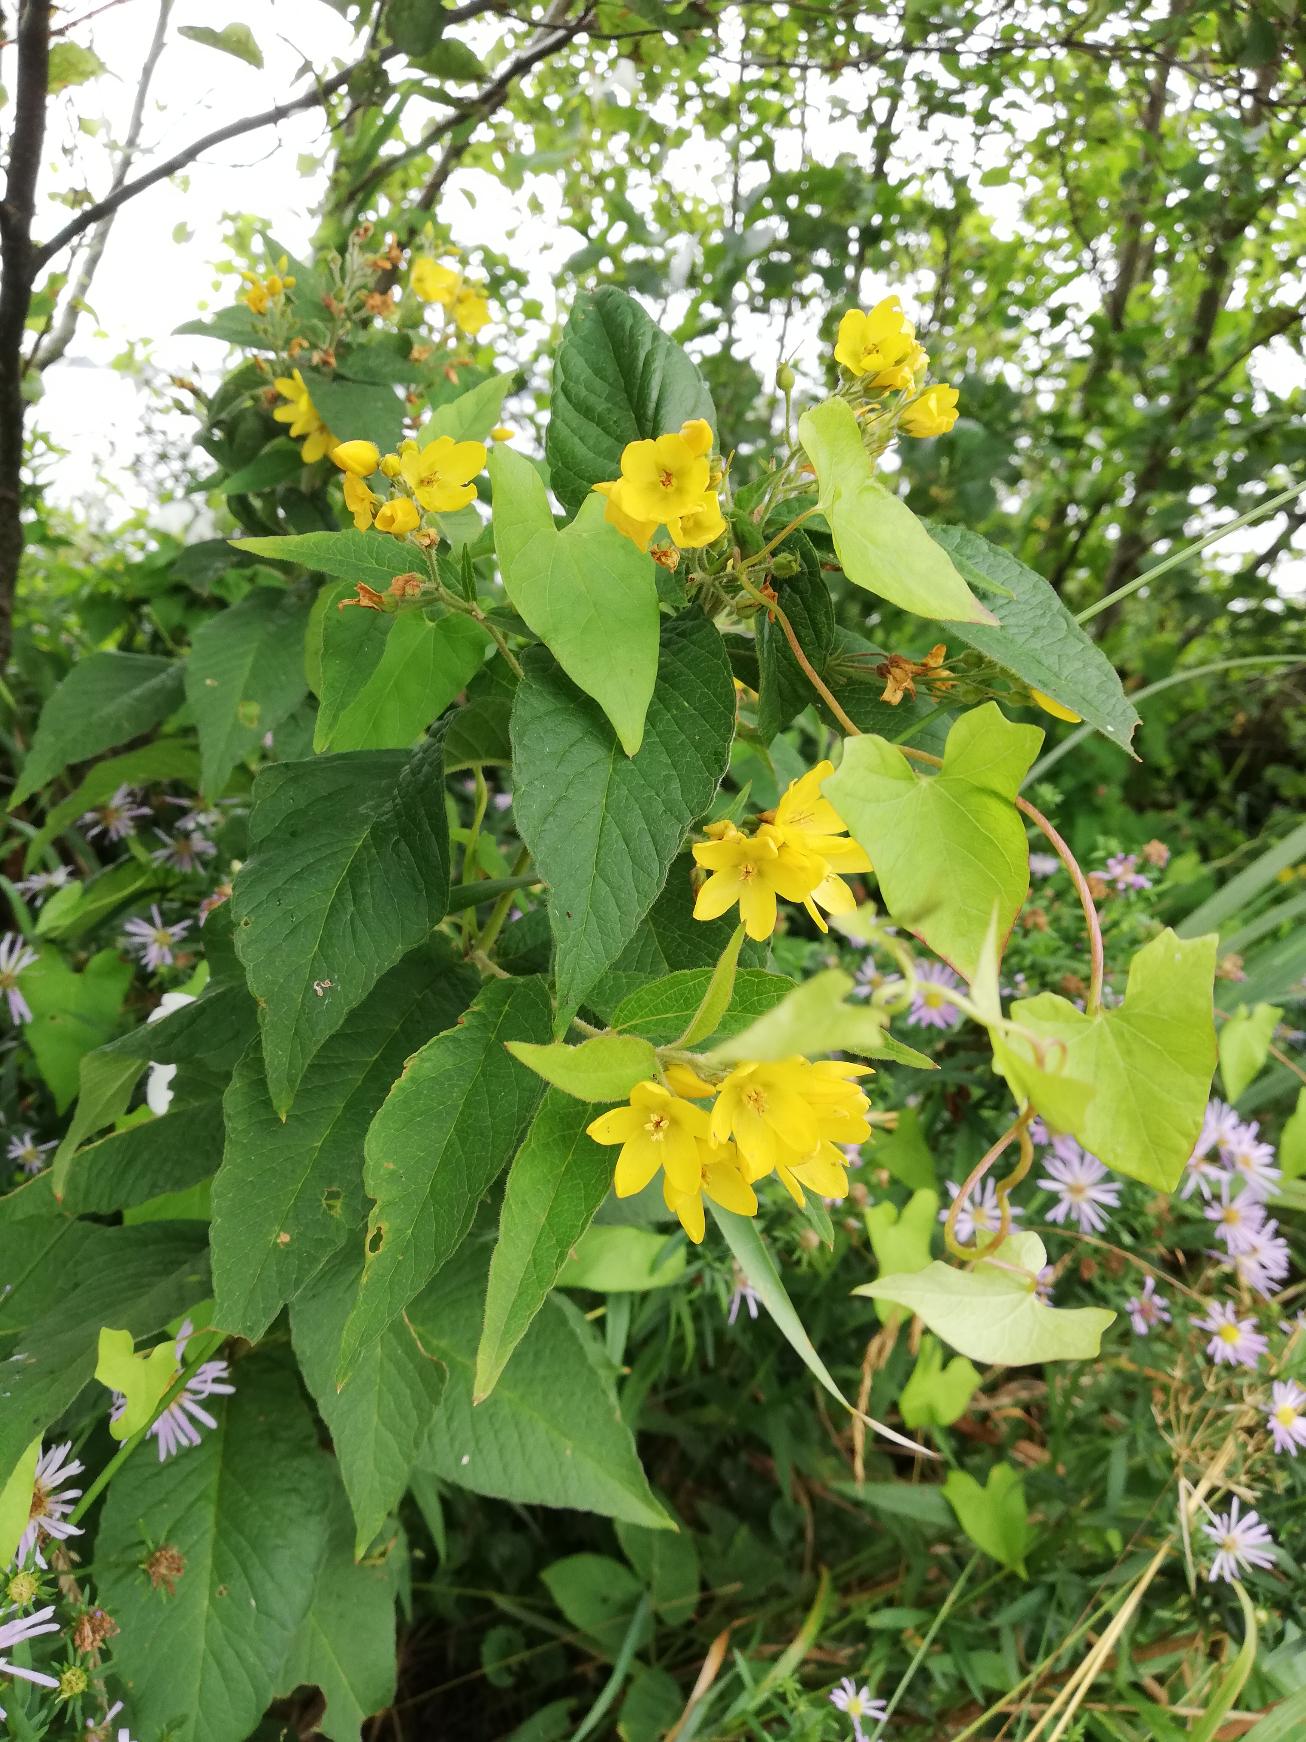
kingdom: Plantae
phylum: Tracheophyta
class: Magnoliopsida
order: Ericales
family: Primulaceae
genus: Lysimachia
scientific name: Lysimachia vulgaris
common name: Almindelig fredløs
